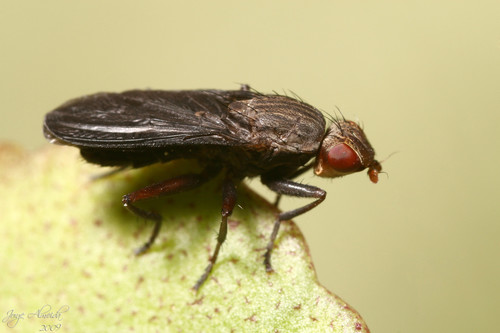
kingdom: Animalia
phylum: Arthropoda
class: Insecta
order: Diptera
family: Phaeomyiidae
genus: Pelidnoptera
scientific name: Pelidnoptera nigripennis
